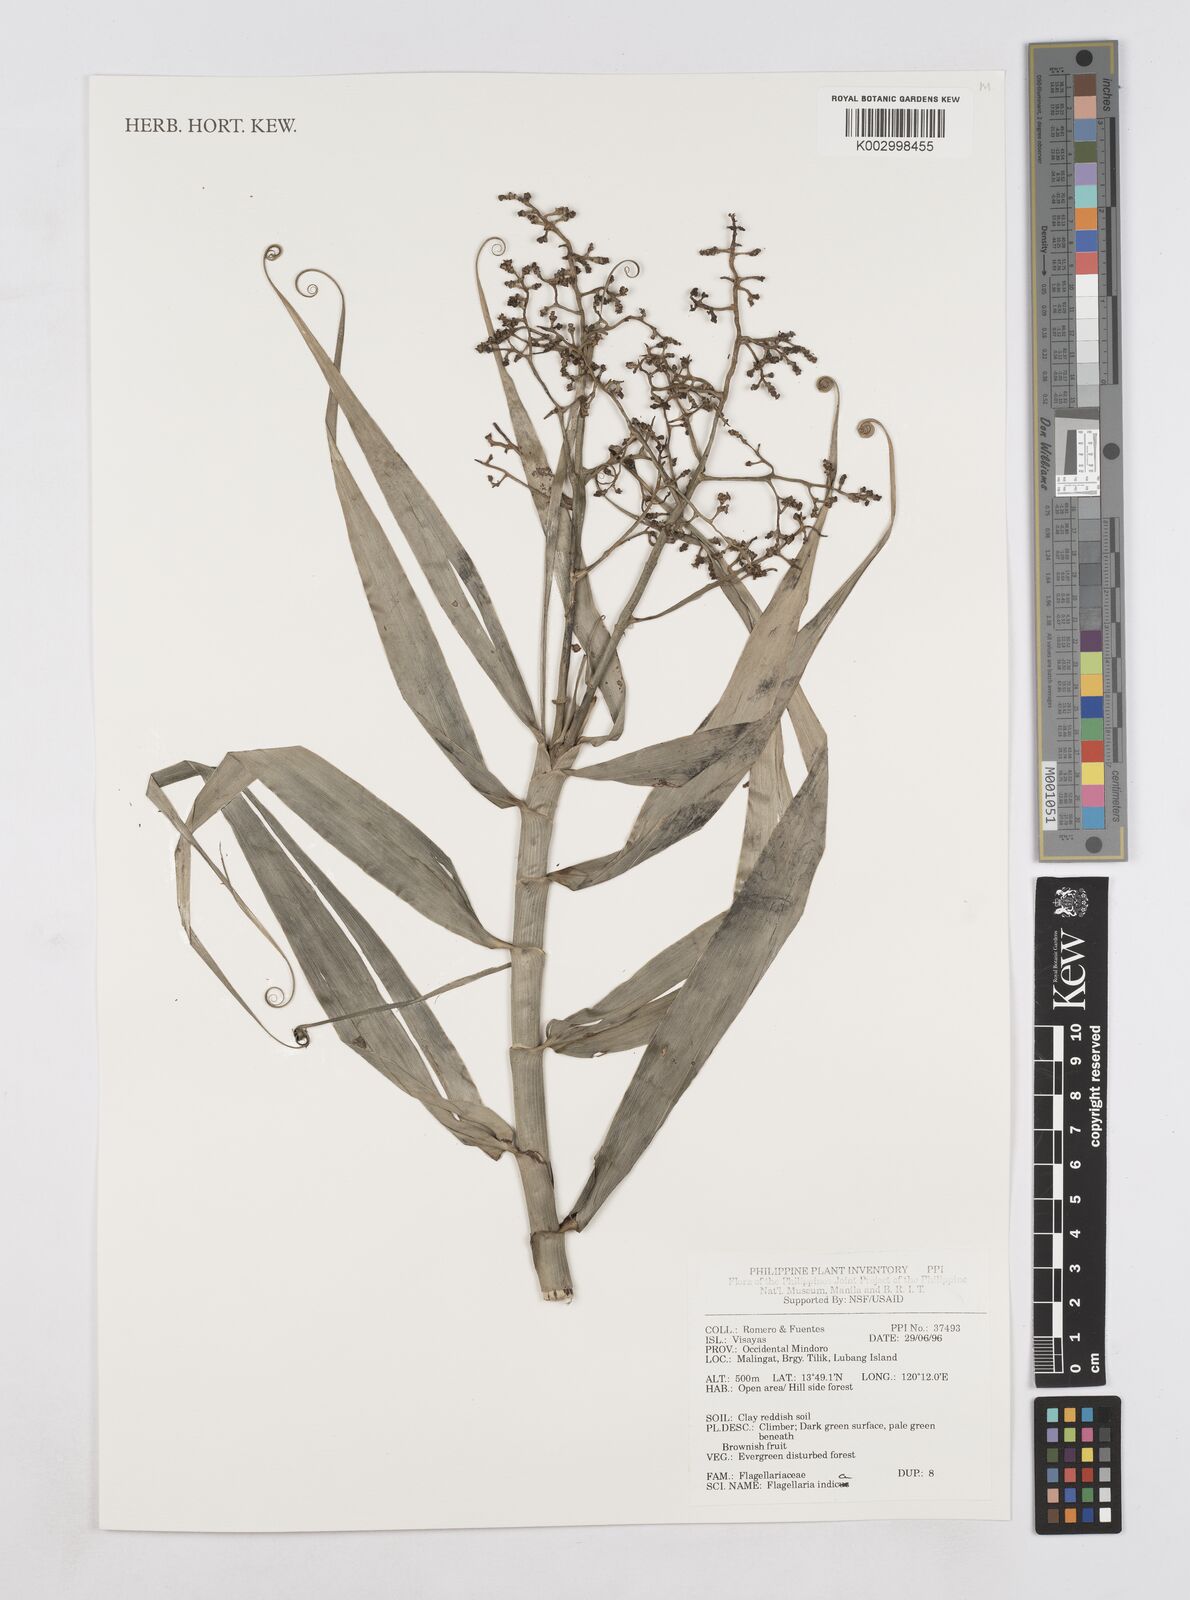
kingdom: Plantae
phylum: Tracheophyta
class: Liliopsida
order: Poales
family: Flagellariaceae
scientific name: Flagellariaceae
